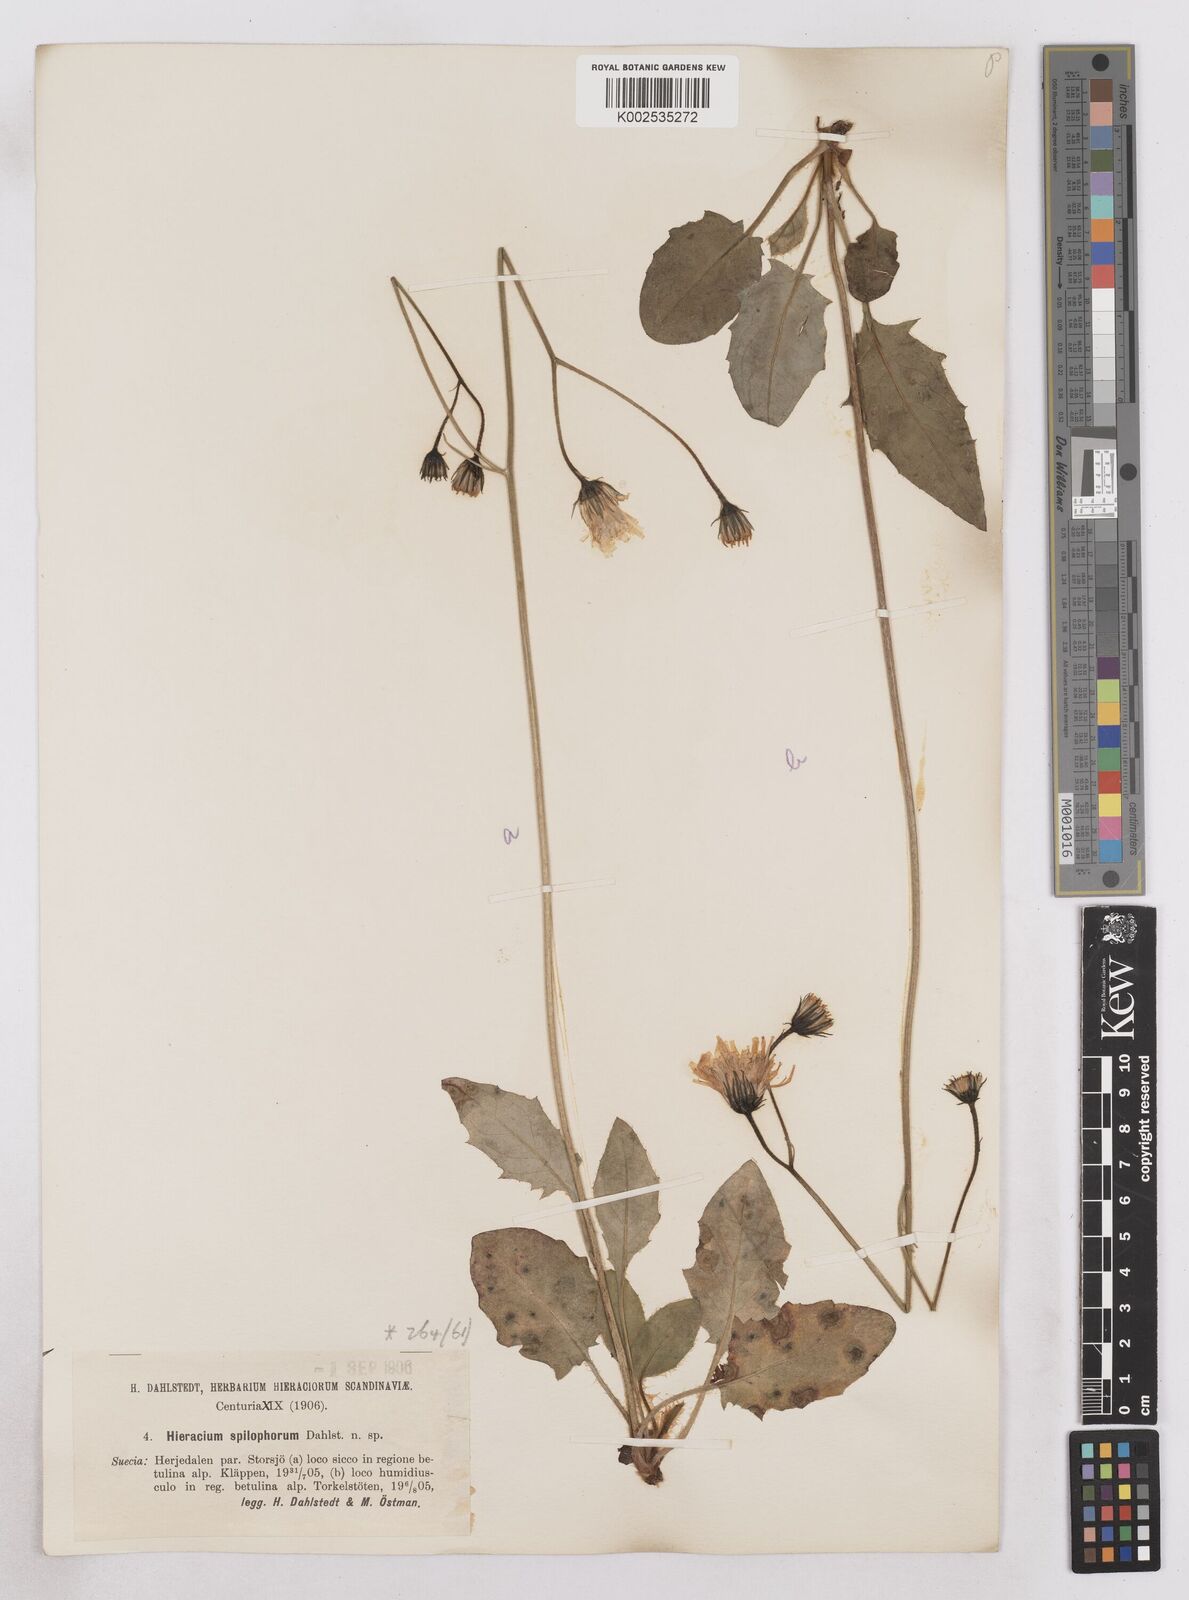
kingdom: Plantae
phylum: Tracheophyta
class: Magnoliopsida
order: Asterales
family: Asteraceae
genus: Hieracium
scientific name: Hieracium maculatum
